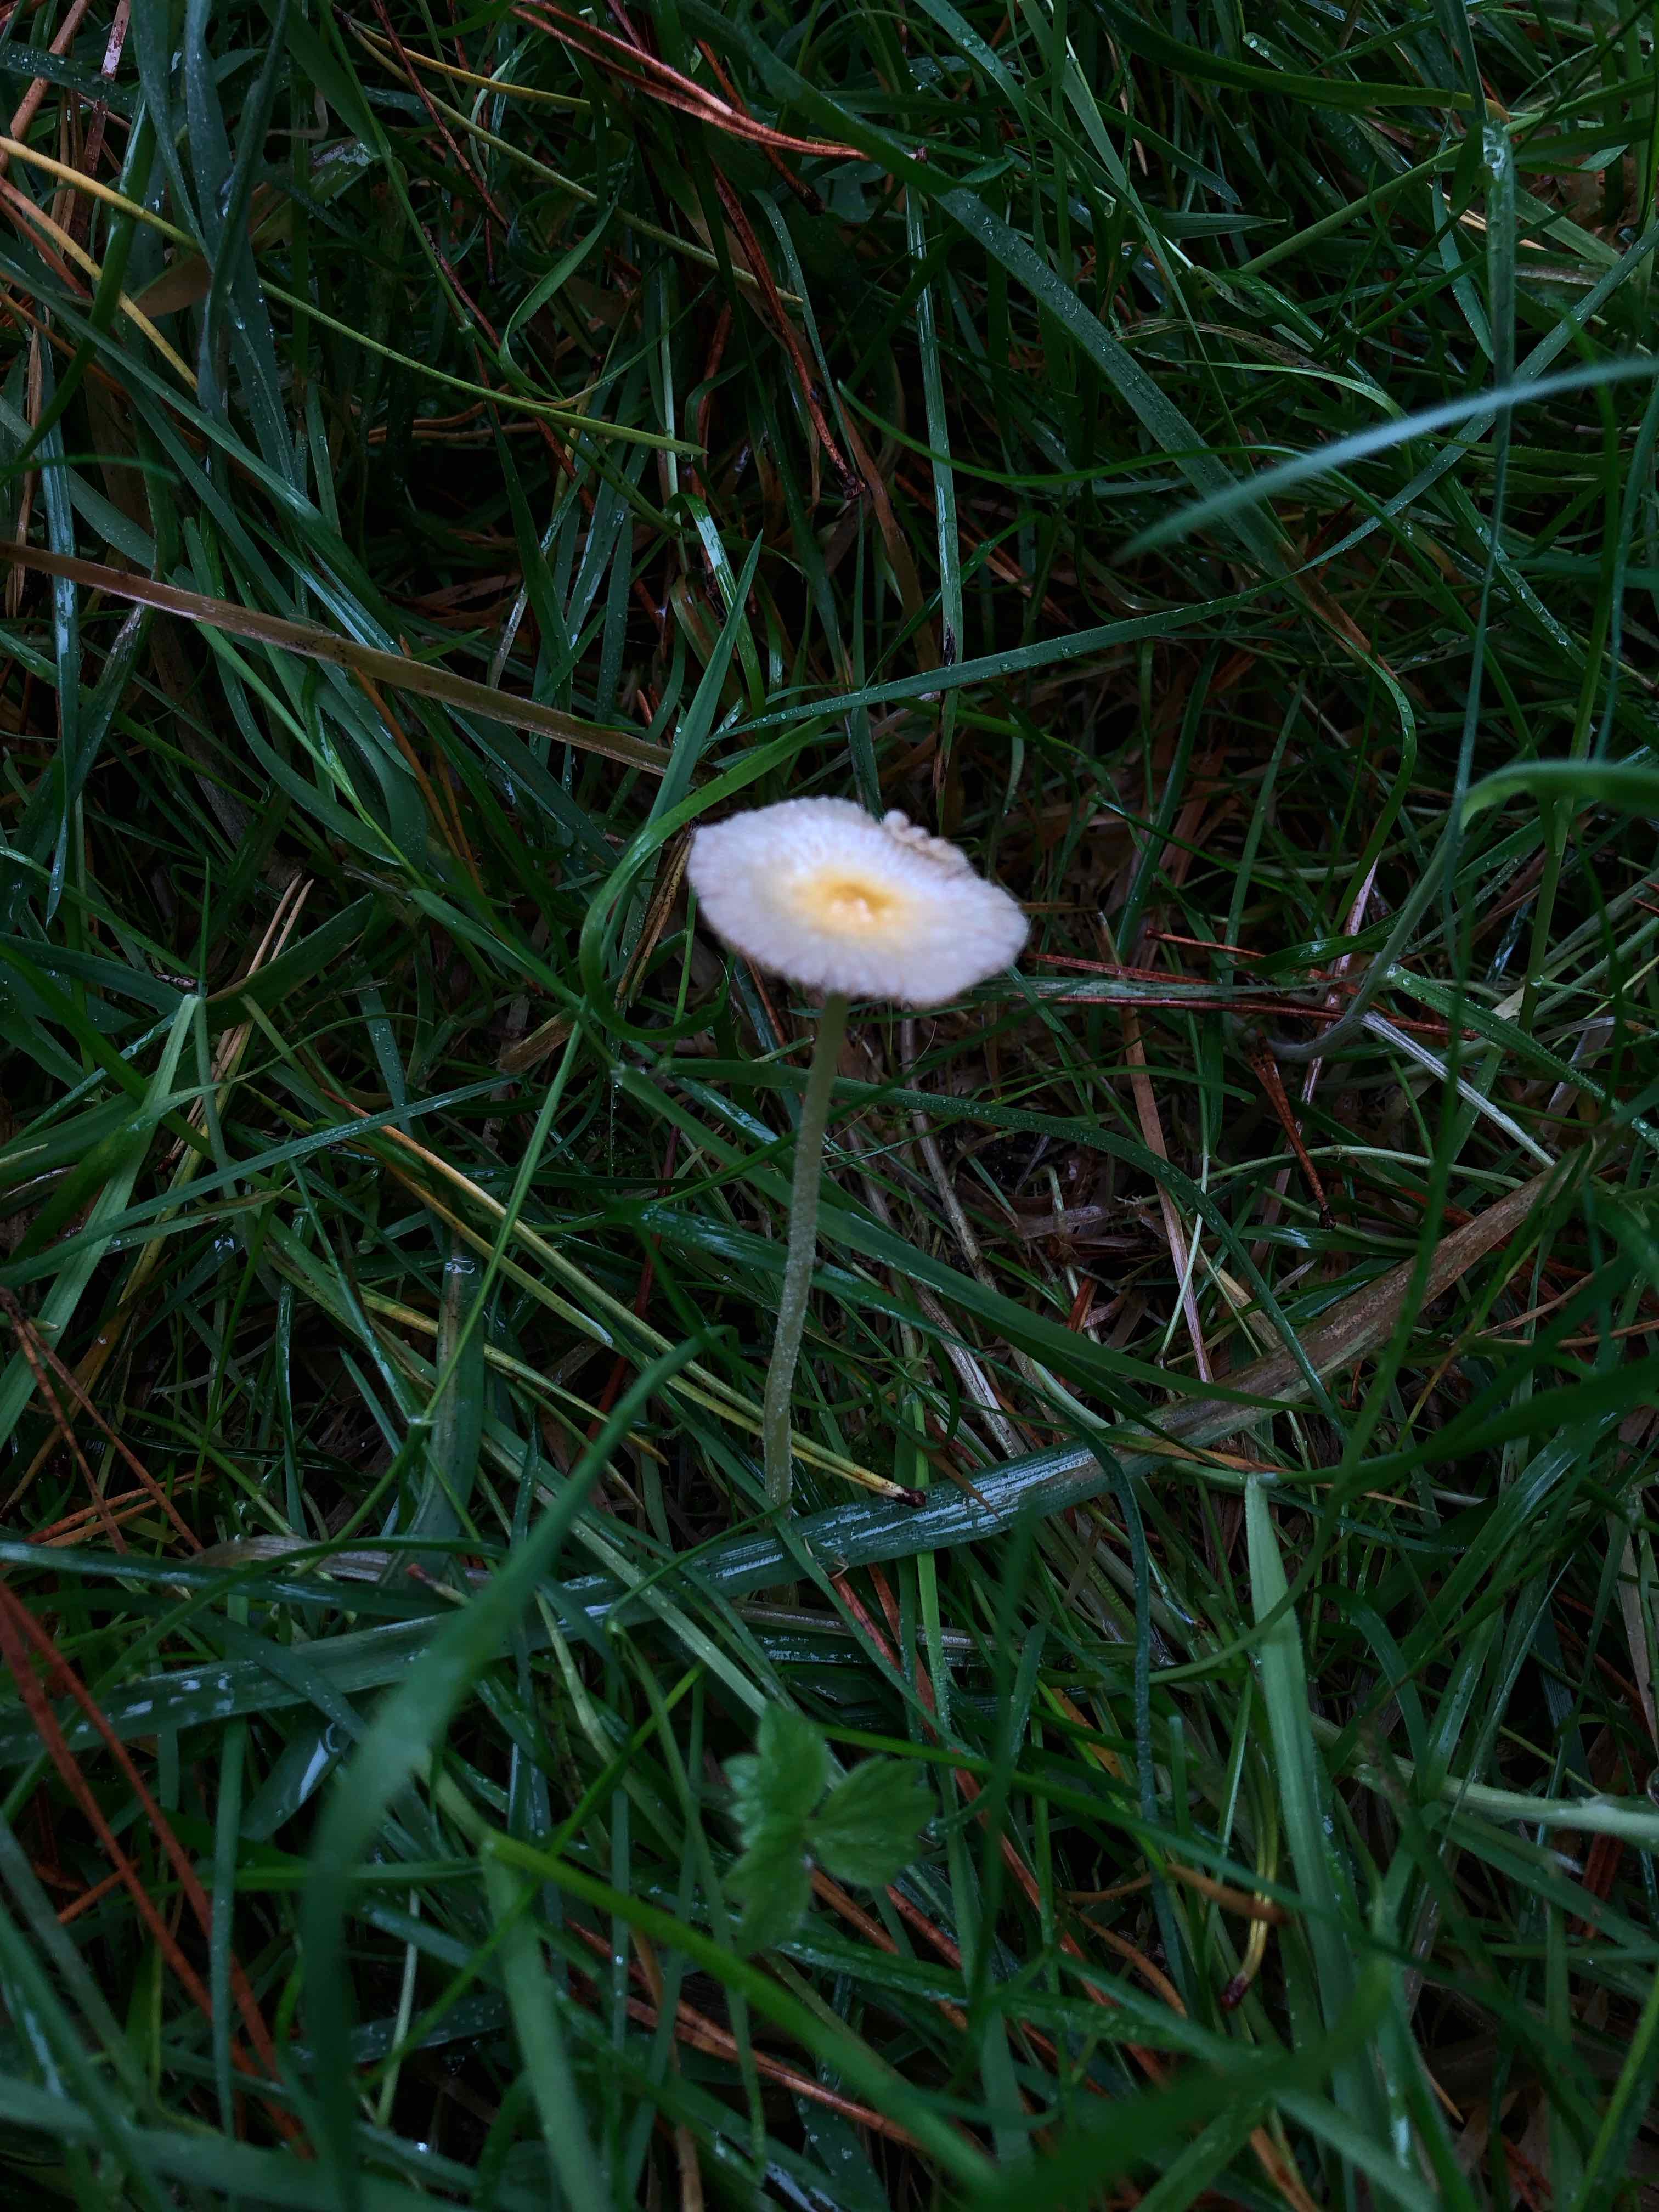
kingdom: Fungi
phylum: Basidiomycota
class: Agaricomycetes
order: Agaricales
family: Bolbitiaceae
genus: Bolbitius
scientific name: Bolbitius titubans
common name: almindelig gulhat
